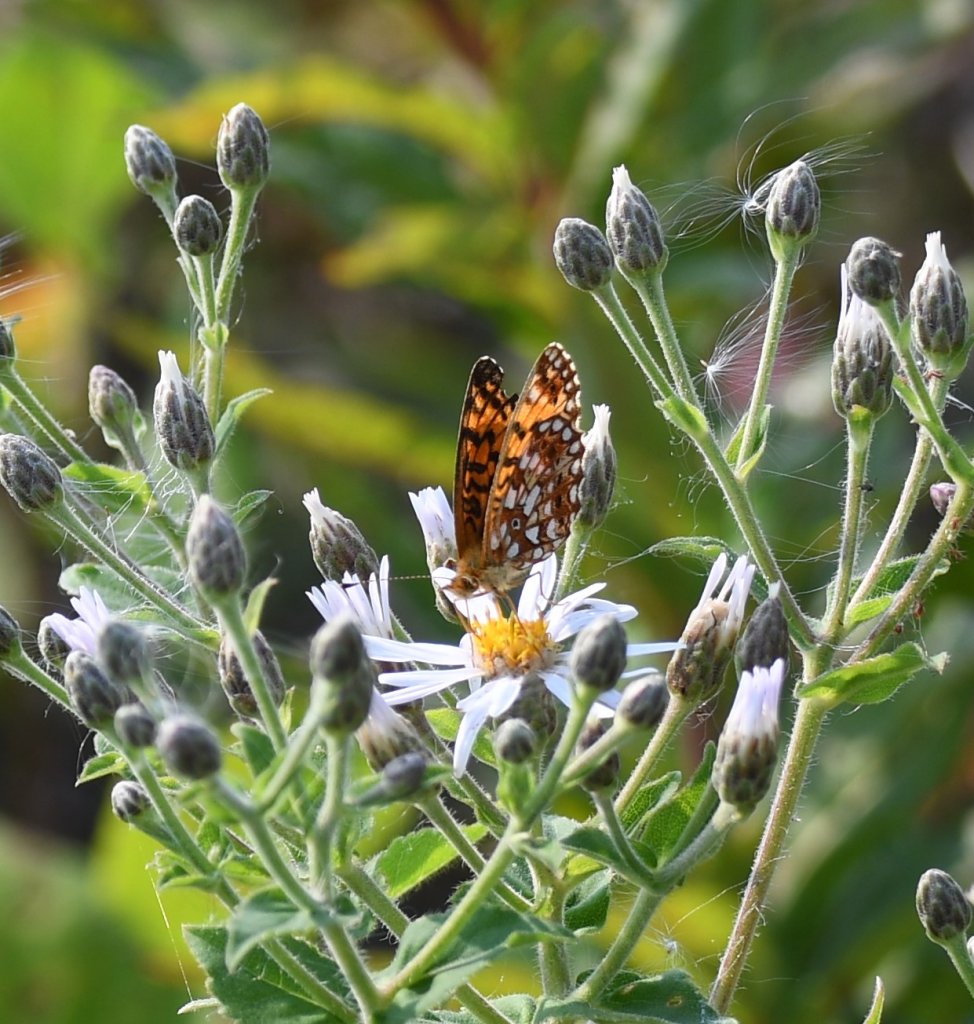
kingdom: Animalia
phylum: Arthropoda
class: Insecta
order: Lepidoptera
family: Nymphalidae
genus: Boloria
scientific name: Boloria selene
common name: Silver-bordered Fritillary
